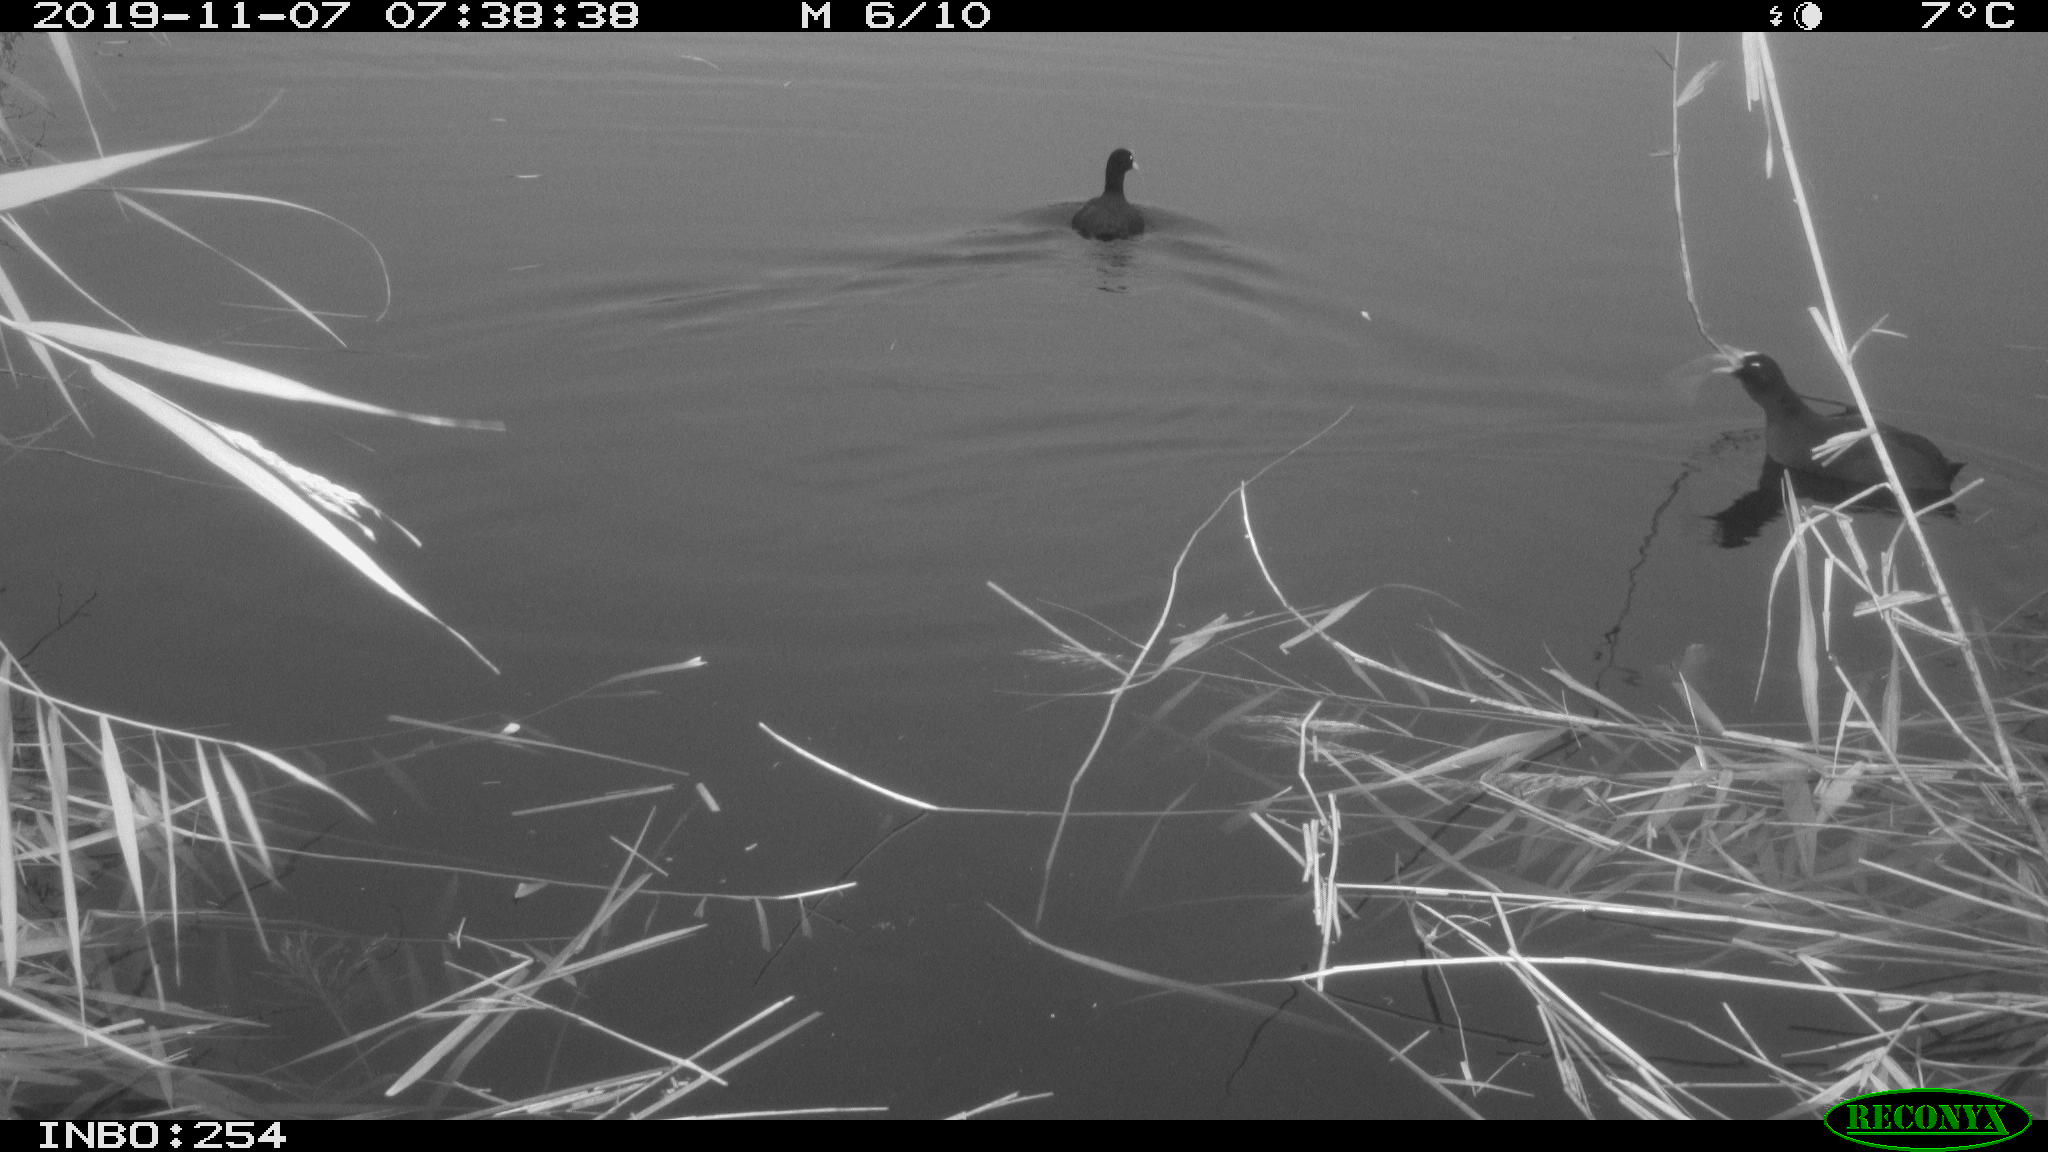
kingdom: Animalia
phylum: Chordata
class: Aves
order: Gruiformes
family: Rallidae
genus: Fulica
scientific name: Fulica atra
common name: Eurasian coot
